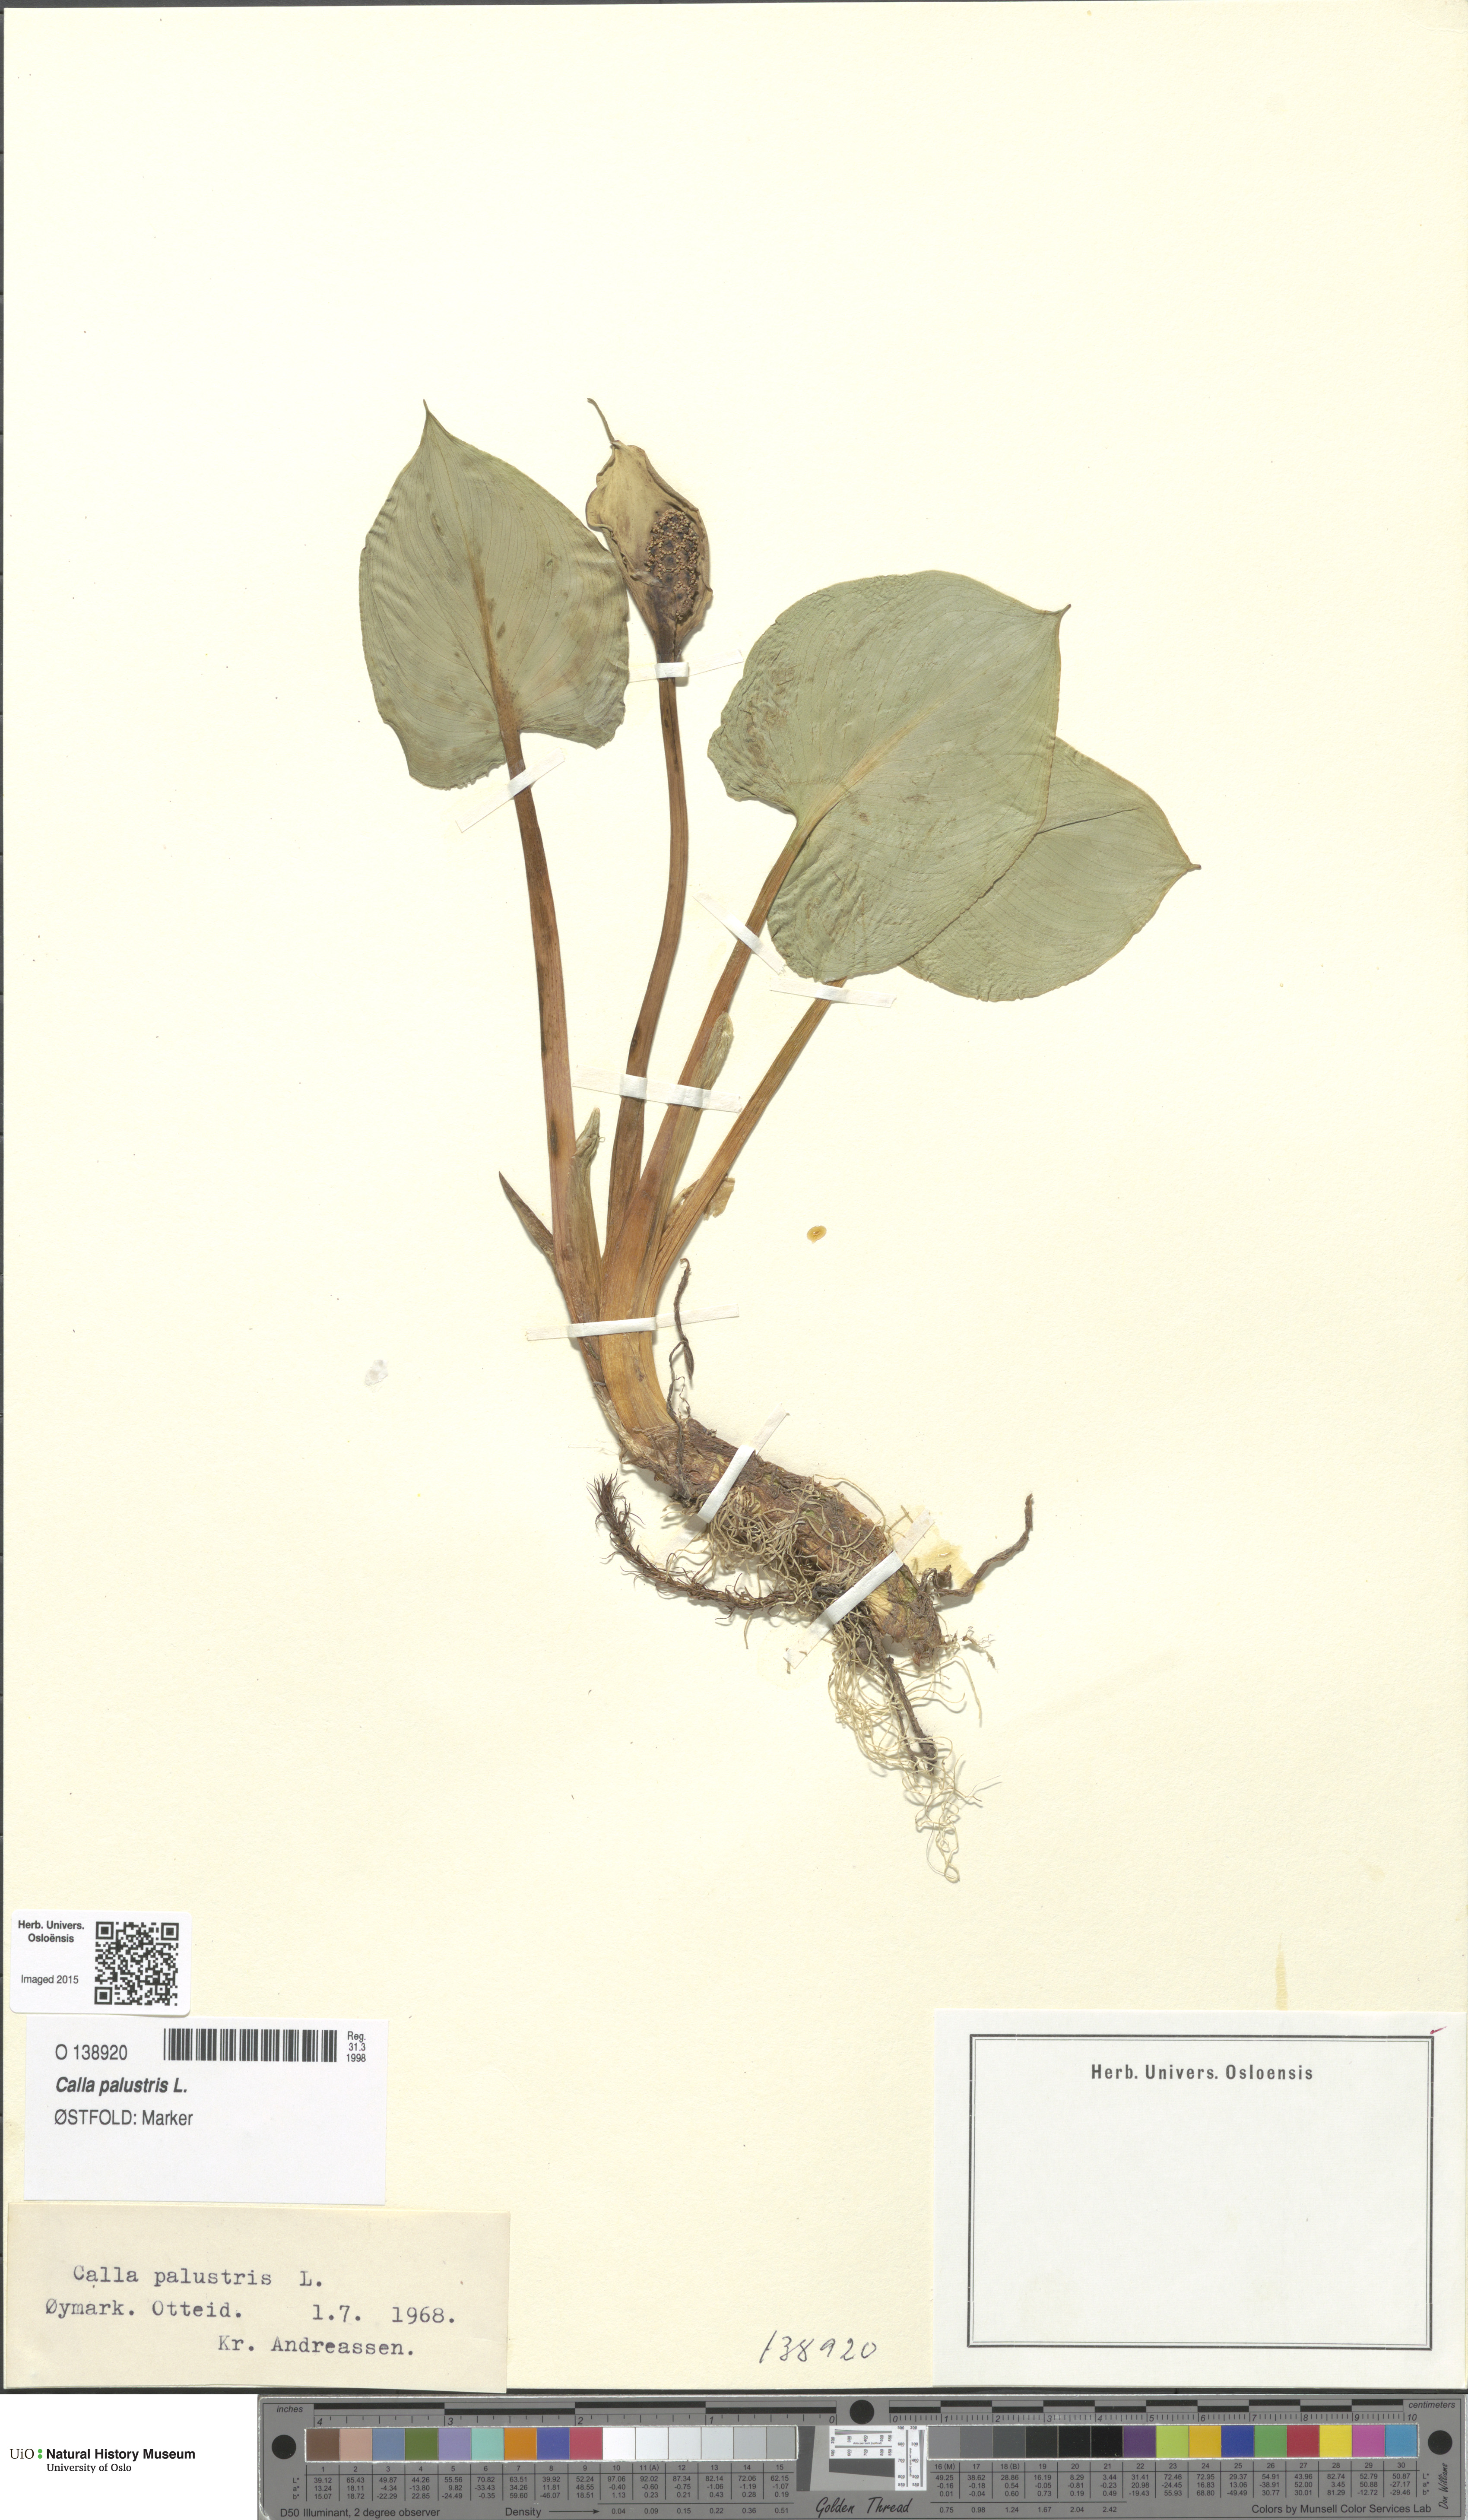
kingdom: Plantae
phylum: Tracheophyta
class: Liliopsida
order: Alismatales
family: Araceae
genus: Calla
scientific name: Calla palustris
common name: Bog arum
